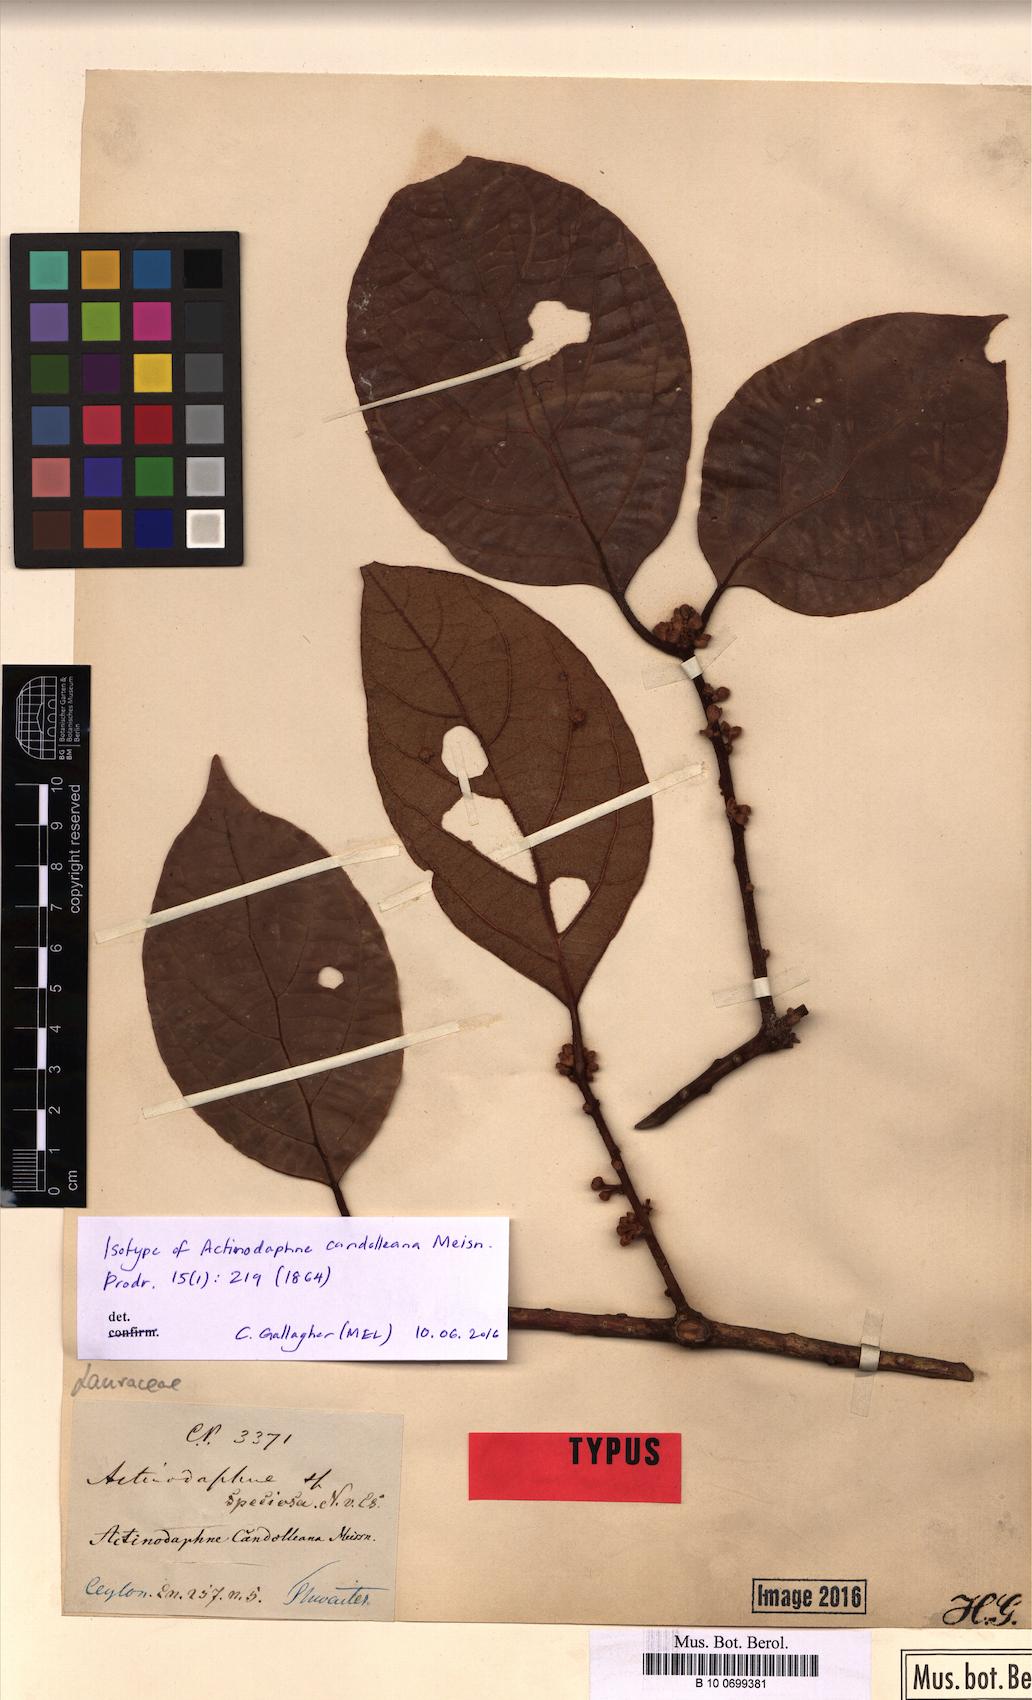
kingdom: Plantae
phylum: Tracheophyta
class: Magnoliopsida
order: Laurales
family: Lauraceae
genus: Actinodaphne
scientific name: Actinodaphne candolleana
